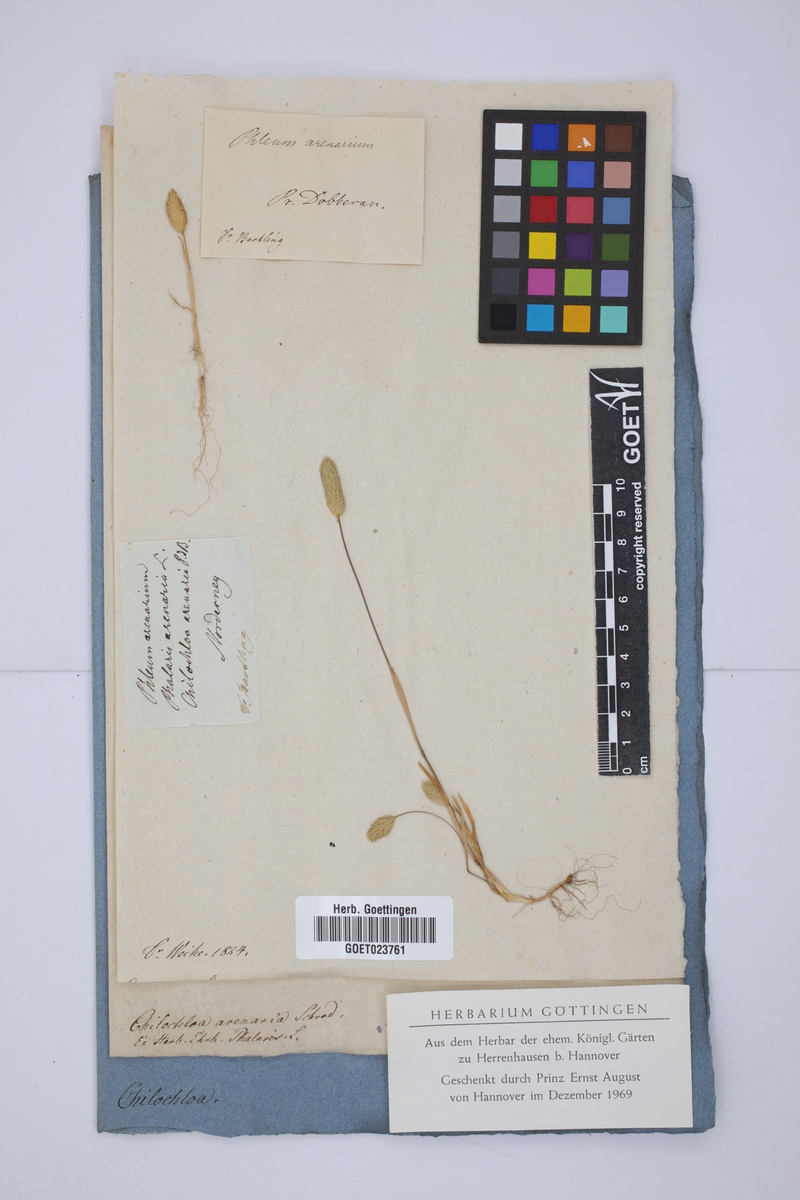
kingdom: Plantae
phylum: Tracheophyta
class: Liliopsida
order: Poales
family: Poaceae
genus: Phleum
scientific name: Phleum arenarium
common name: Sand cat's-tail
